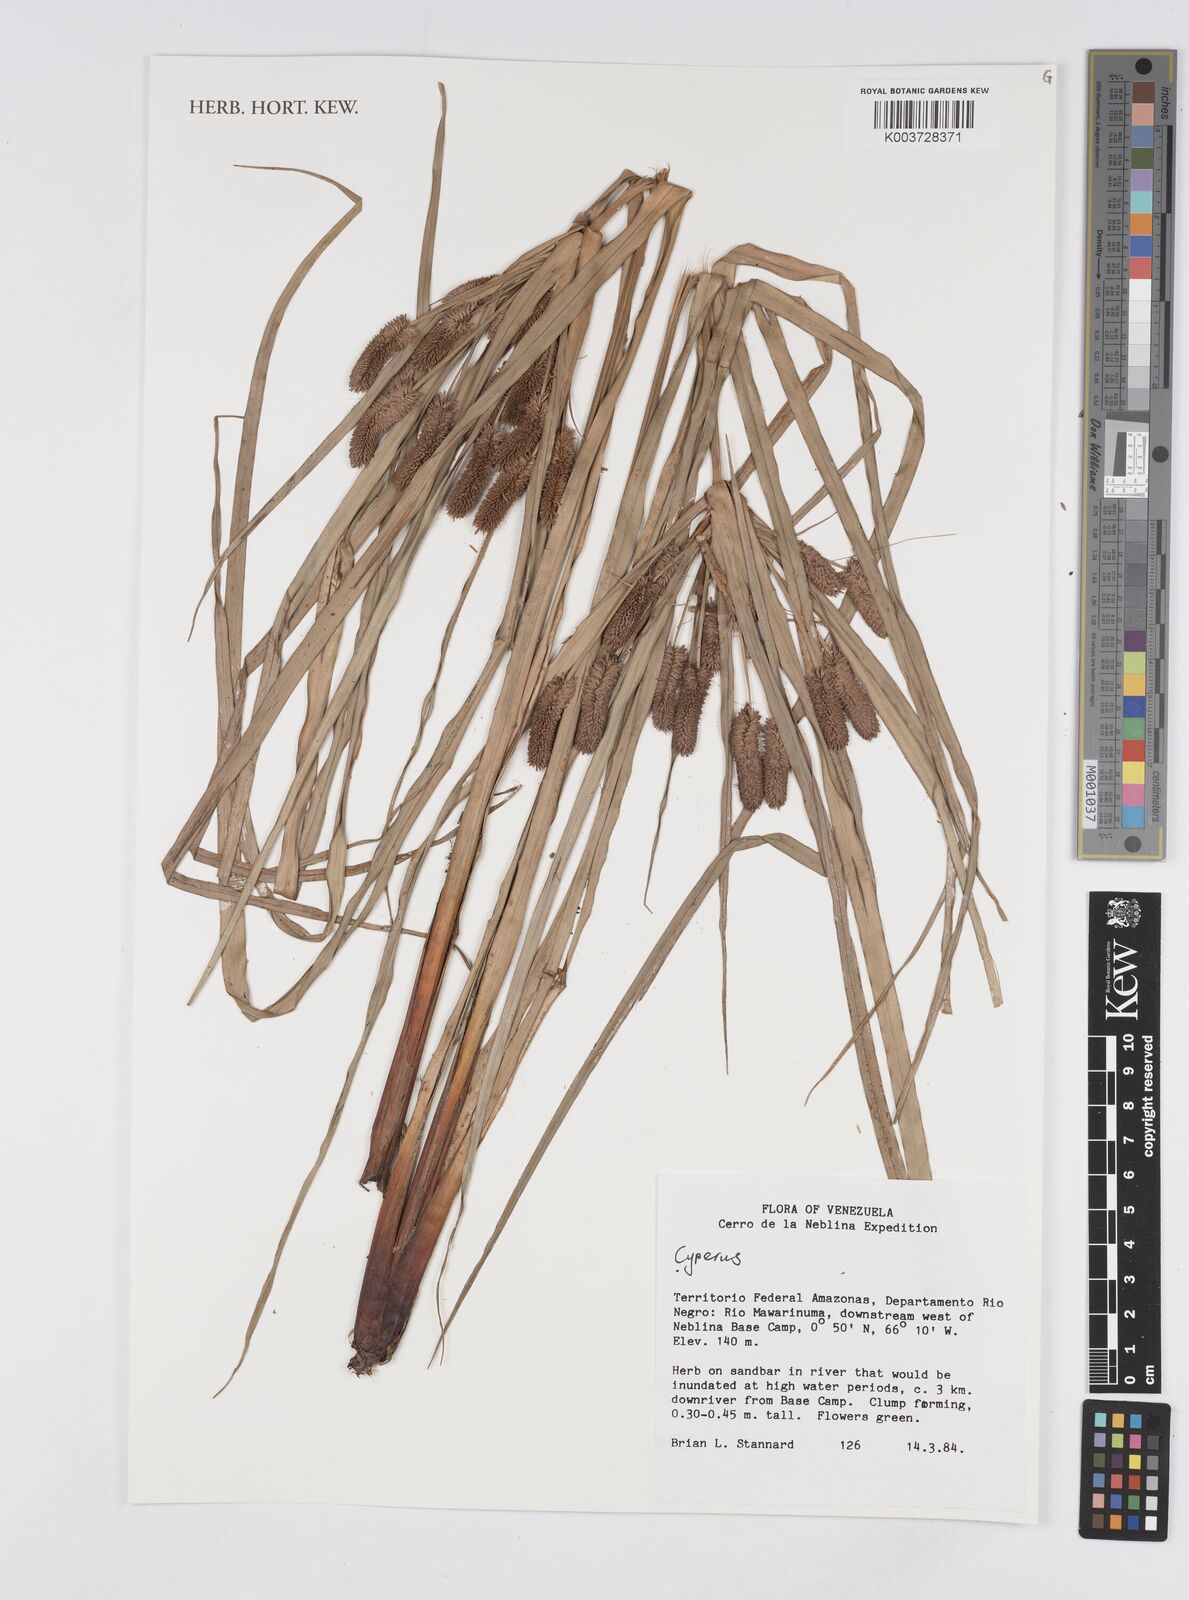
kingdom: Plantae
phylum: Tracheophyta
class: Liliopsida
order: Poales
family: Cyperaceae
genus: Cyperus
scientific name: Cyperus
